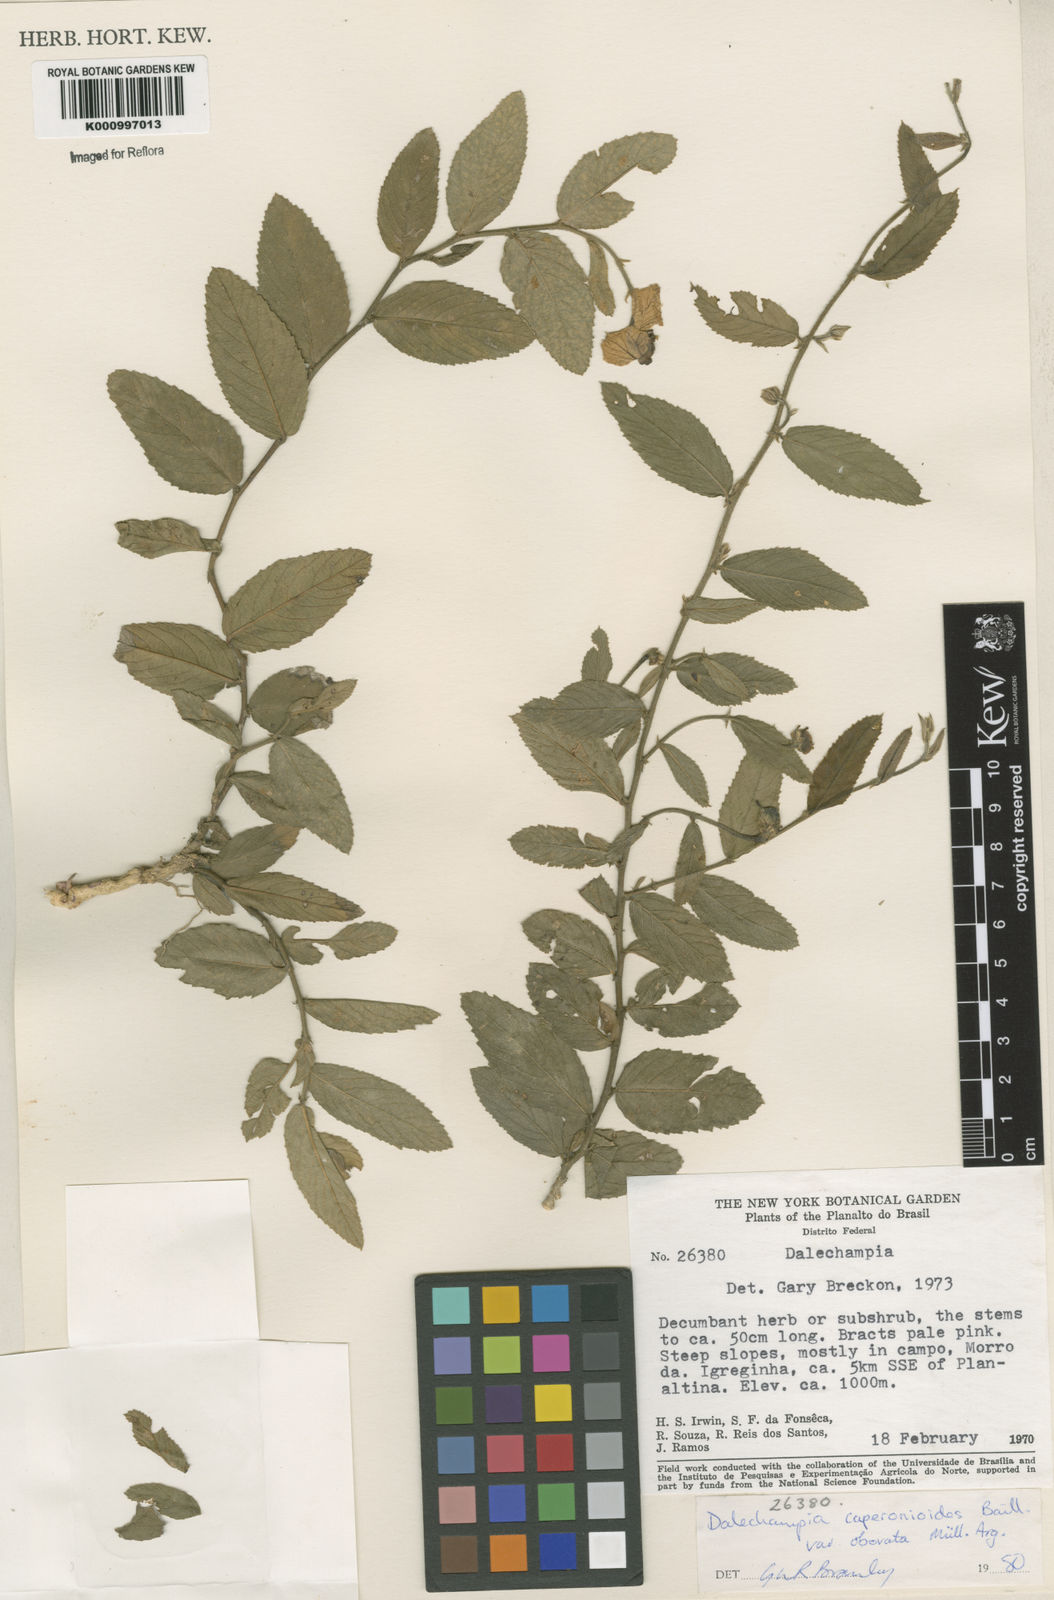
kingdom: Plantae
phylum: Tracheophyta
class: Magnoliopsida
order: Malpighiales
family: Euphorbiaceae
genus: Dalechampia
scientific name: Dalechampia caperonioides
